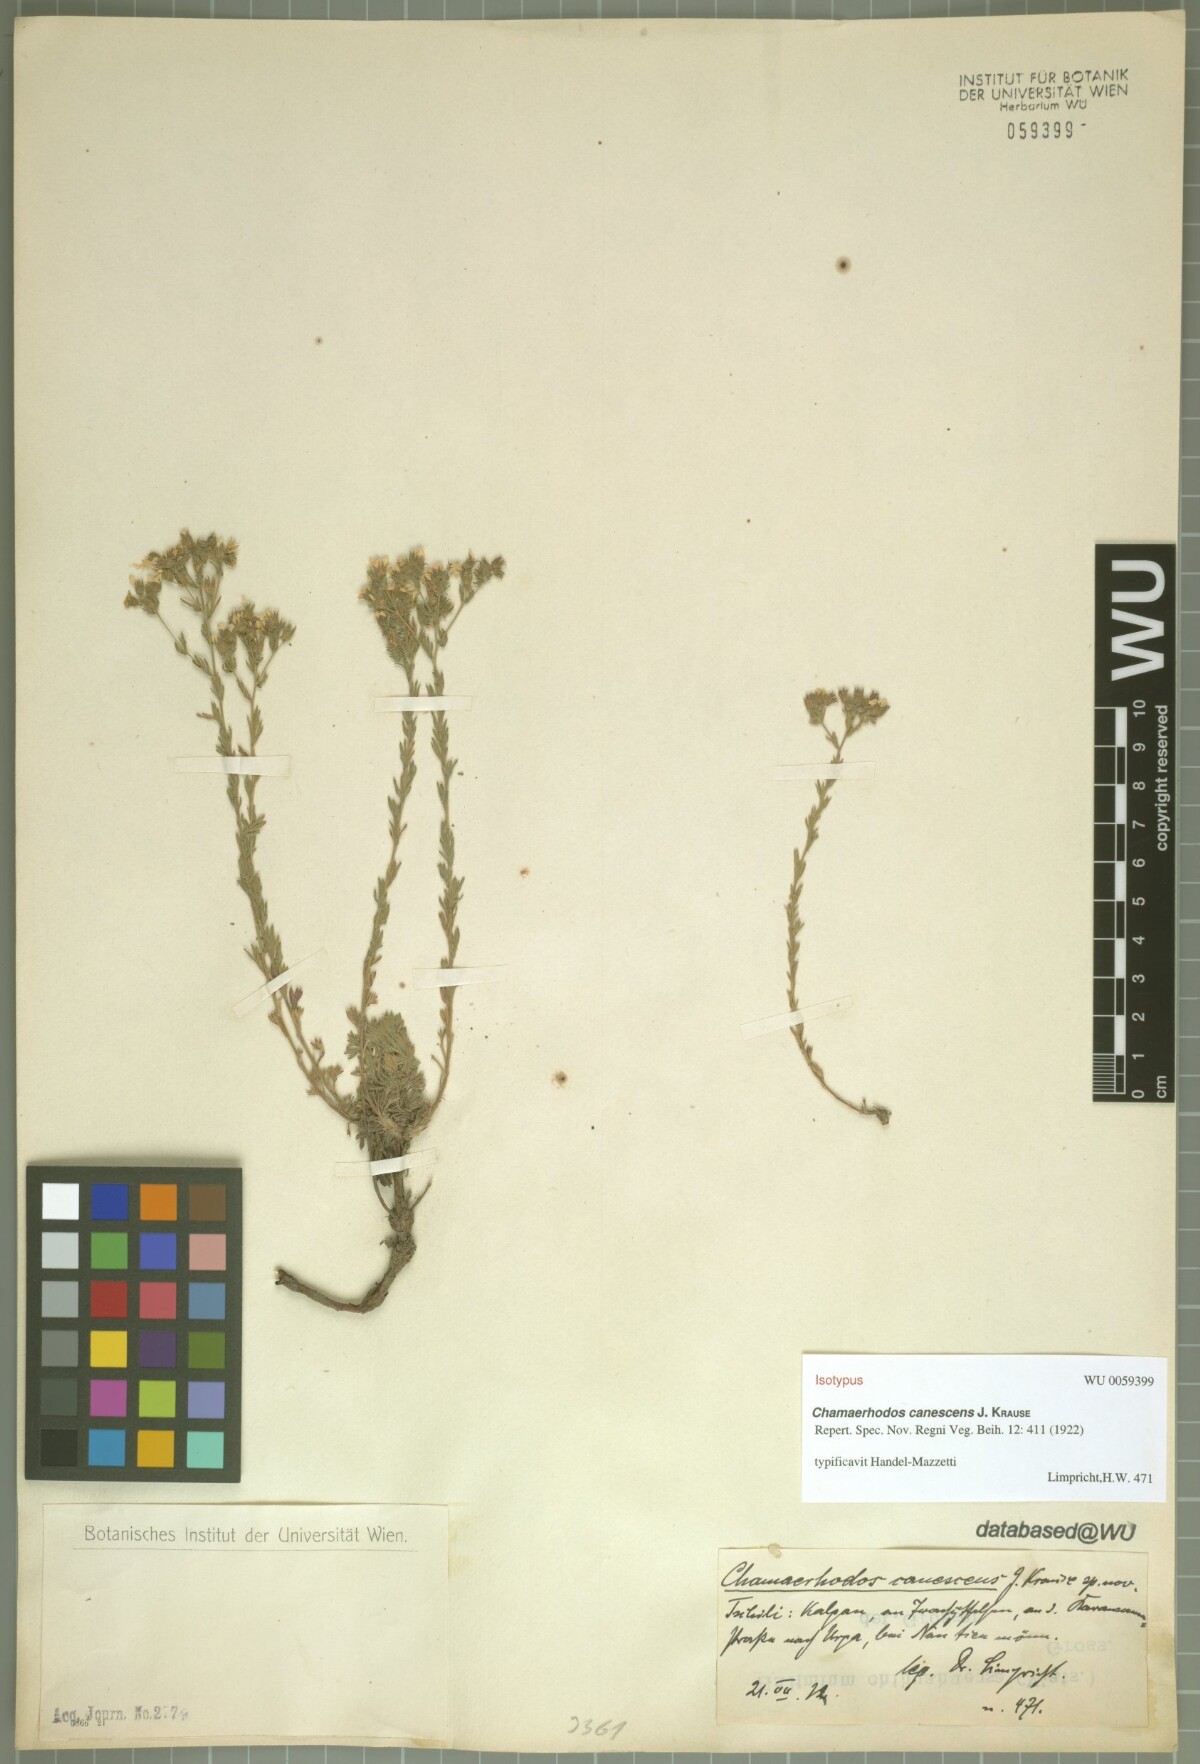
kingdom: Plantae
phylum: Tracheophyta
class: Magnoliopsida
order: Rosales
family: Rosaceae
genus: Chamaerhodos
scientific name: Chamaerhodos canescens
